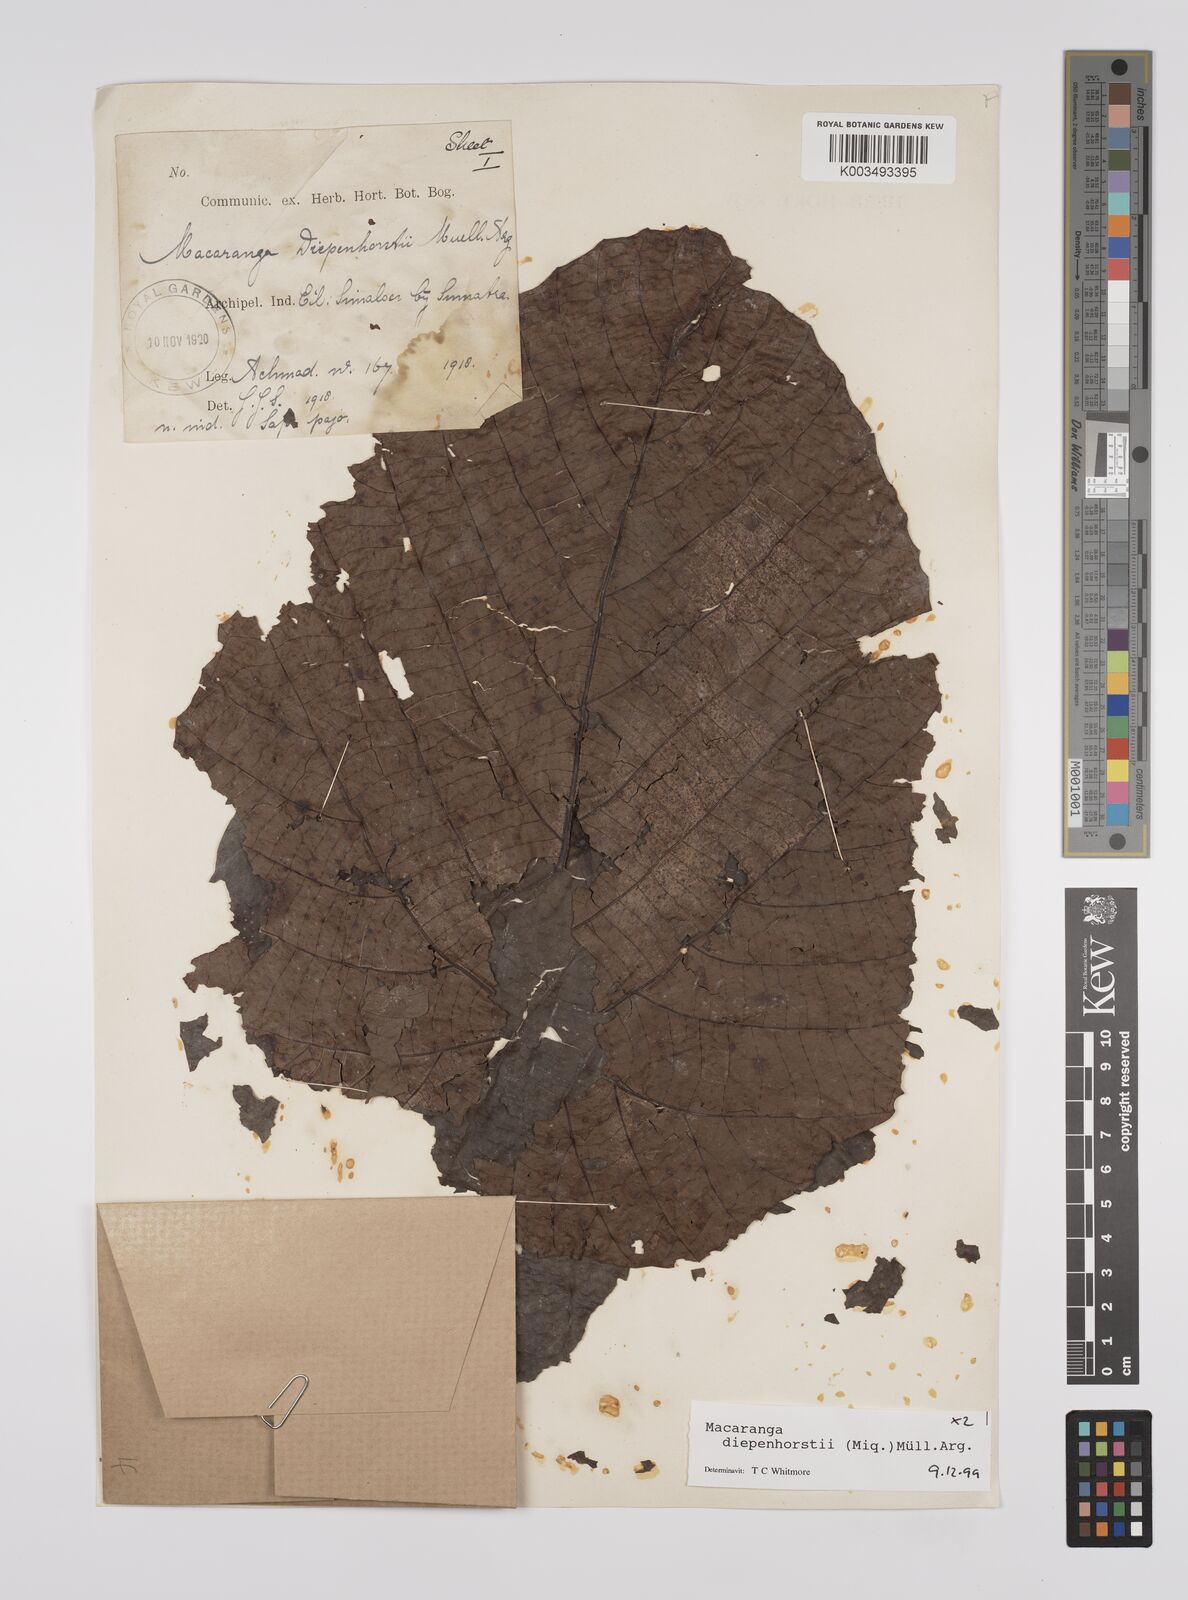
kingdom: Plantae
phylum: Tracheophyta
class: Magnoliopsida
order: Malpighiales
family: Euphorbiaceae
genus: Macaranga
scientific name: Macaranga diepenhorstii
